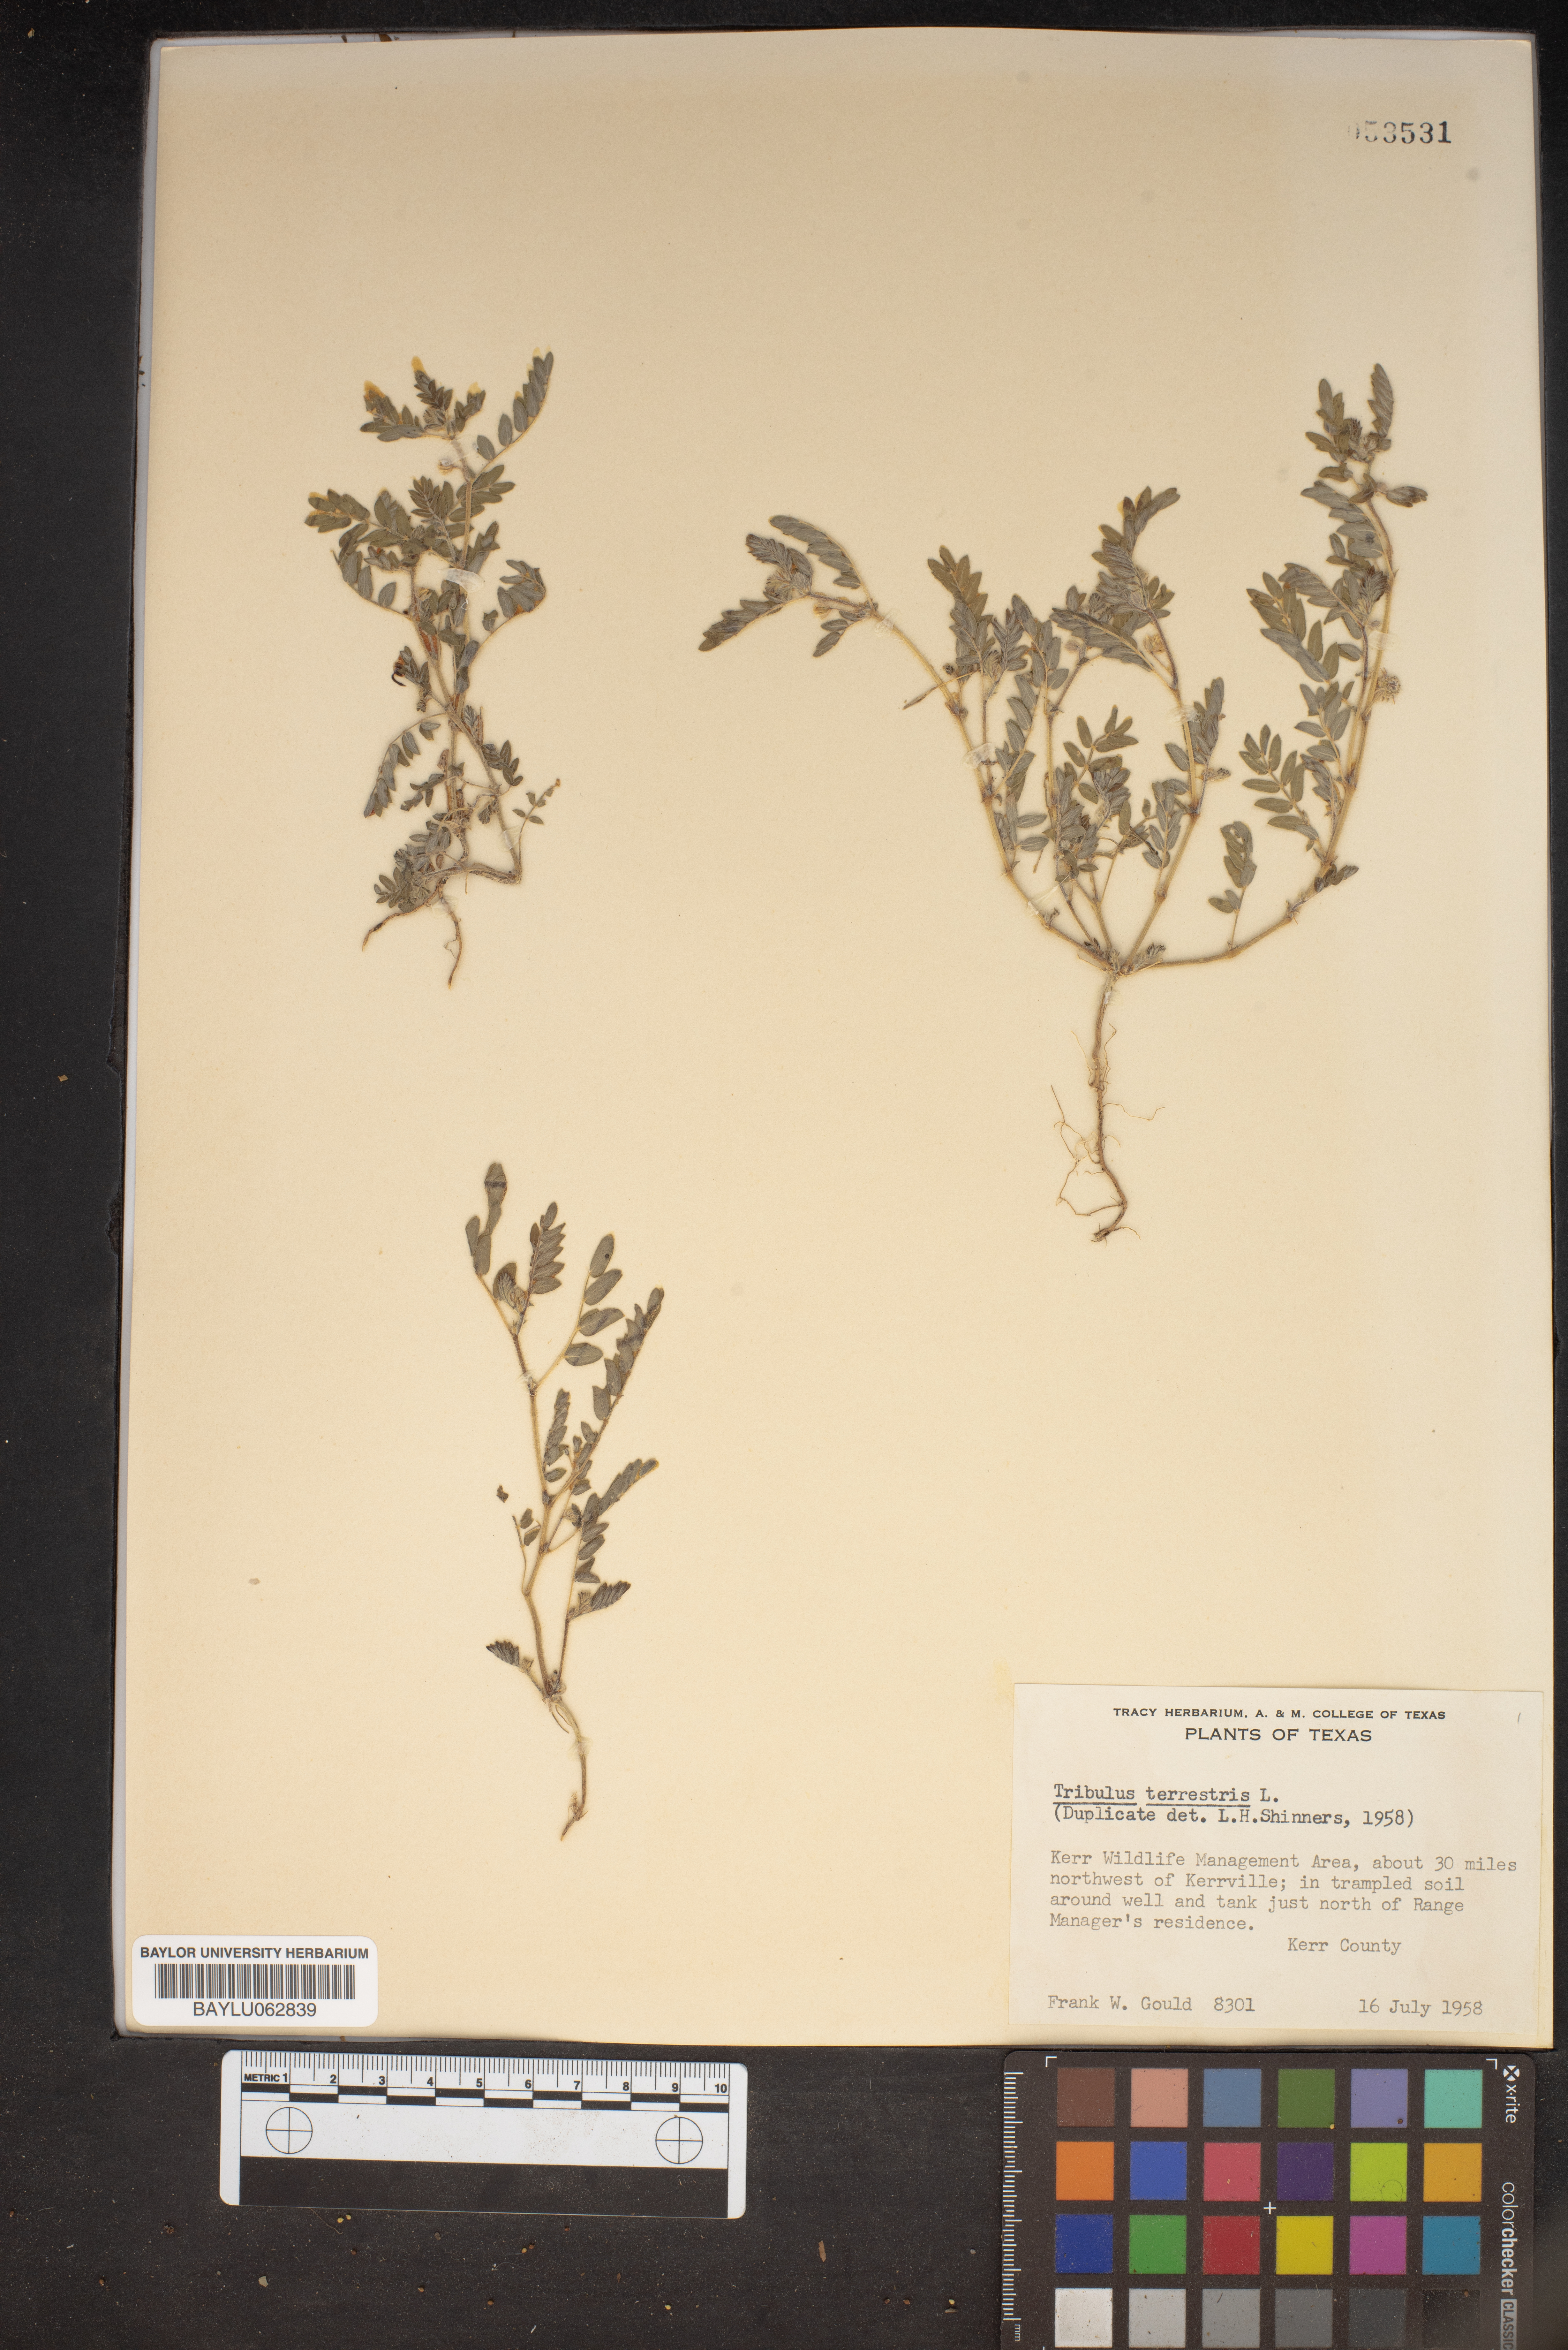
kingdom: Plantae
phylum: Tracheophyta
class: Magnoliopsida
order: Zygophyllales
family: Zygophyllaceae
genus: Tribulus
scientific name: Tribulus terrestris
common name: Puncturevine
